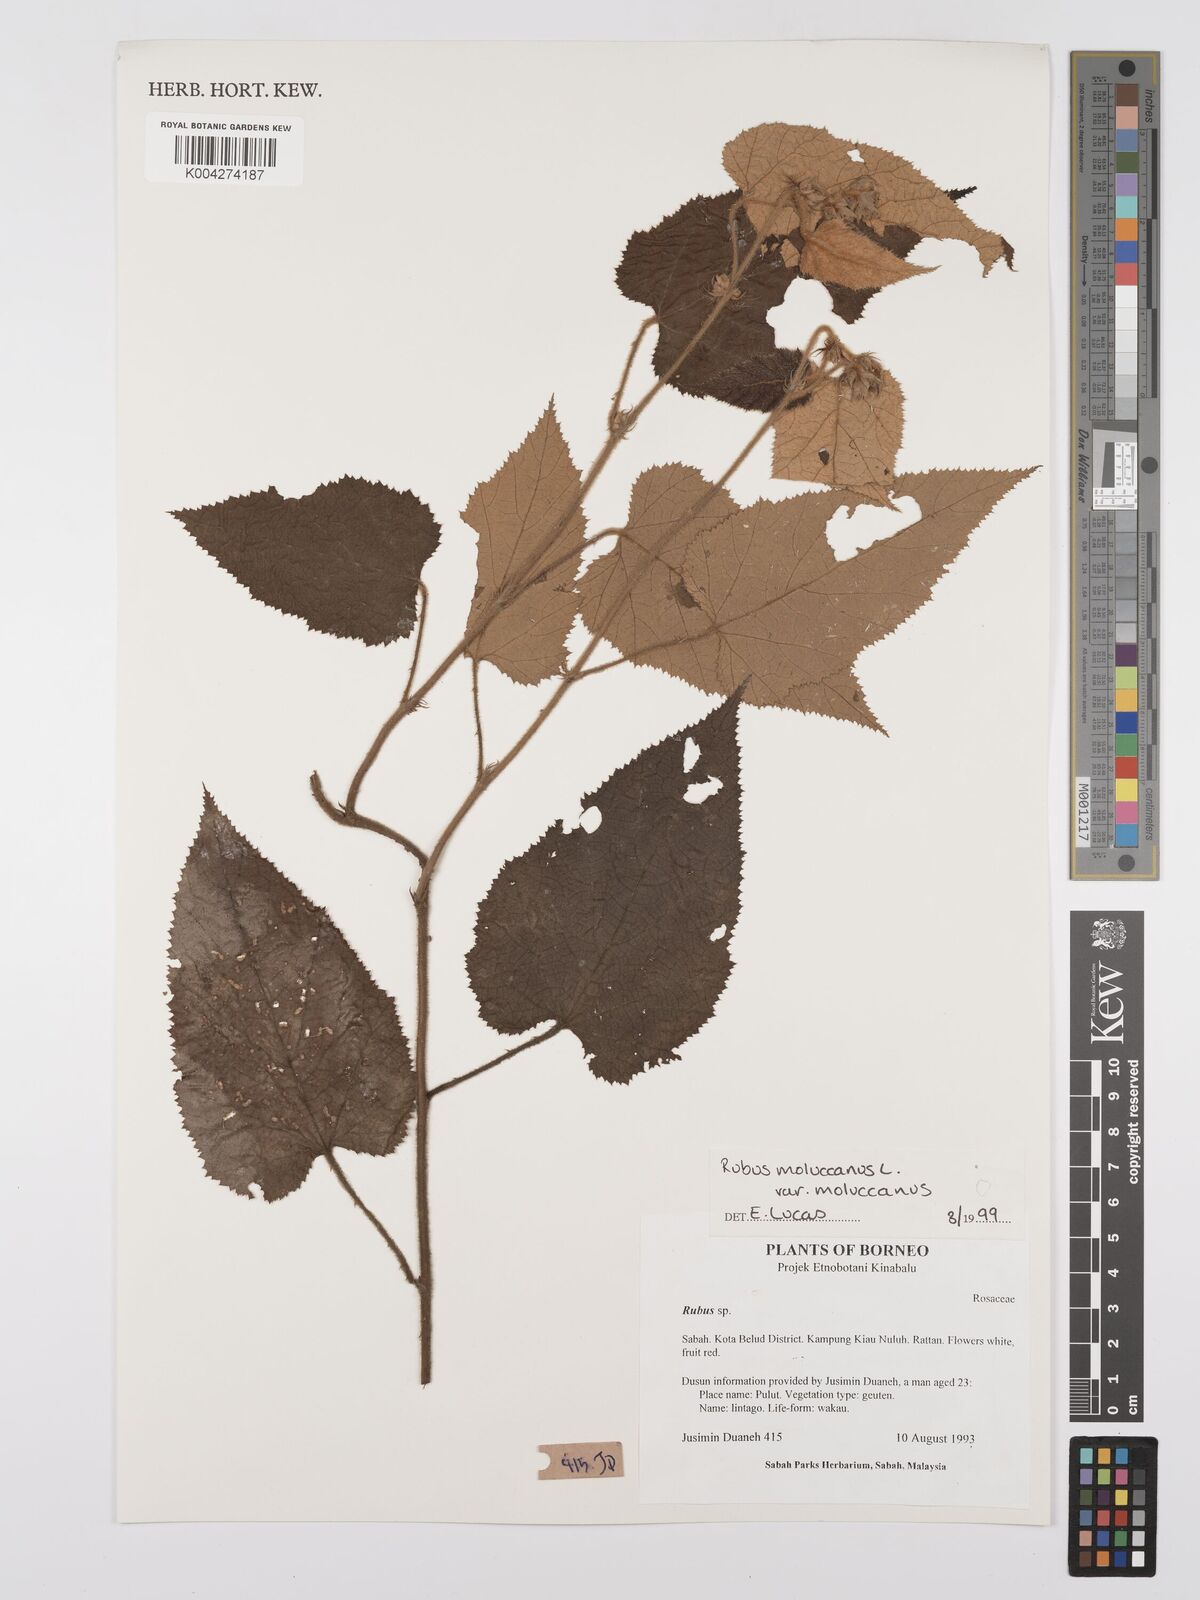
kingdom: Plantae
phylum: Tracheophyta
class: Magnoliopsida
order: Rosales
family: Rosaceae
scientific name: Rosaceae
